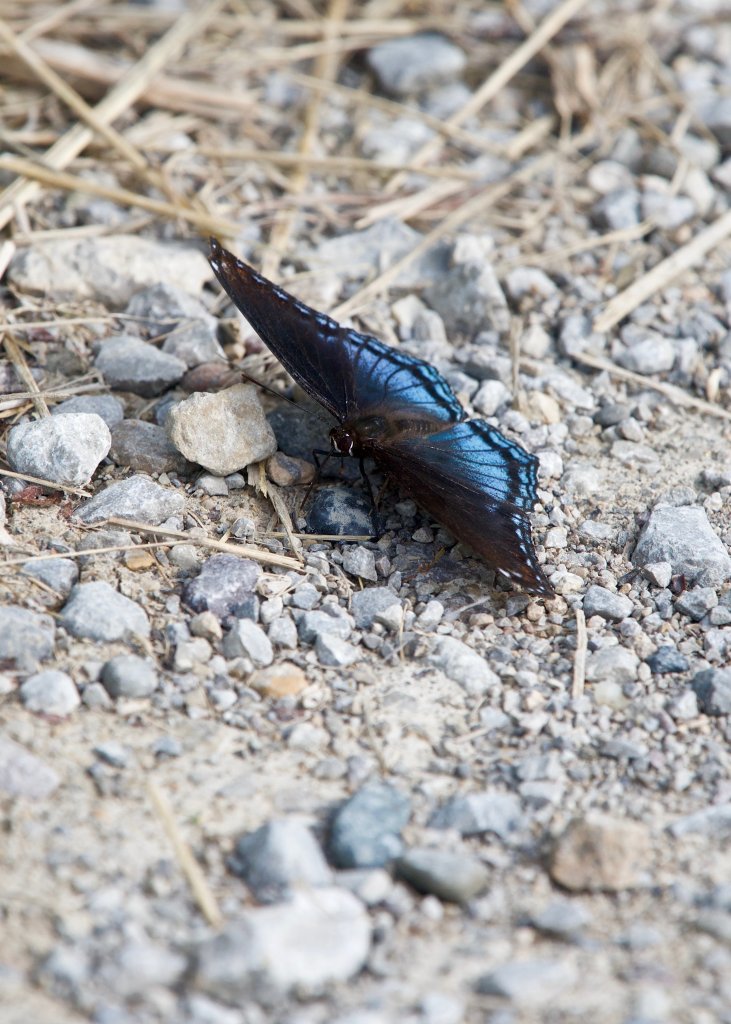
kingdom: Animalia
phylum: Arthropoda
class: Insecta
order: Lepidoptera
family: Nymphalidae
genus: Limenitis
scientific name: Limenitis astyanax
